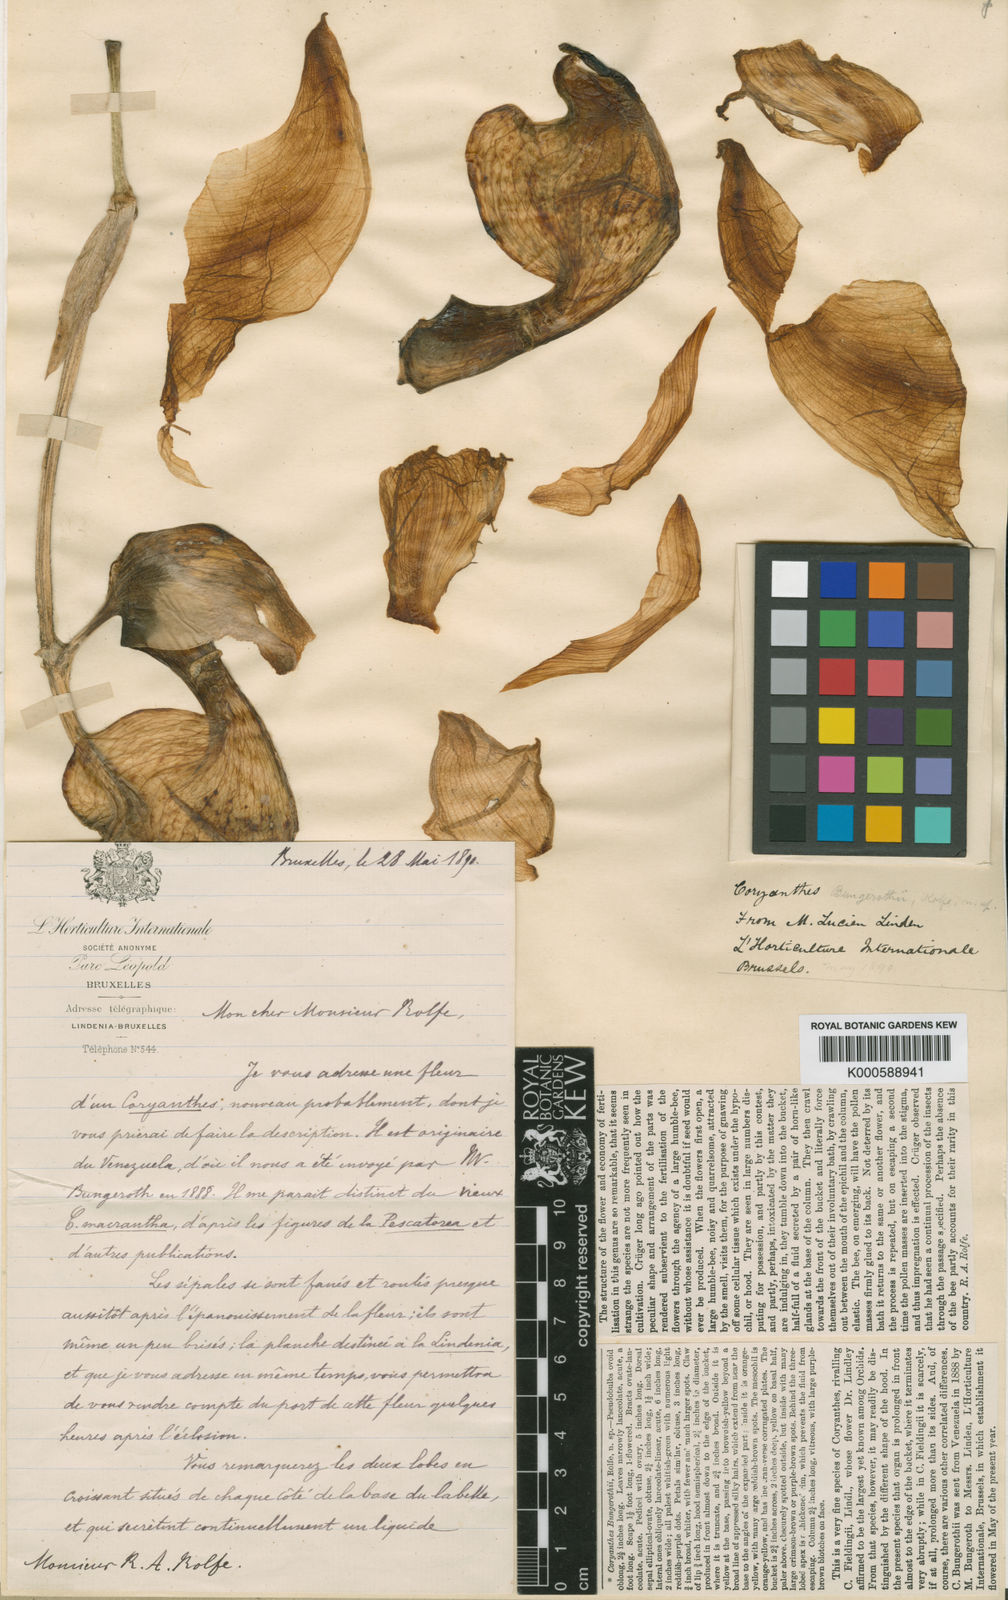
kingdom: Plantae
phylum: Tracheophyta
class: Liliopsida
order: Asparagales
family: Orchidaceae
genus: Coryanthes
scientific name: Coryanthes bruchmuelleri
